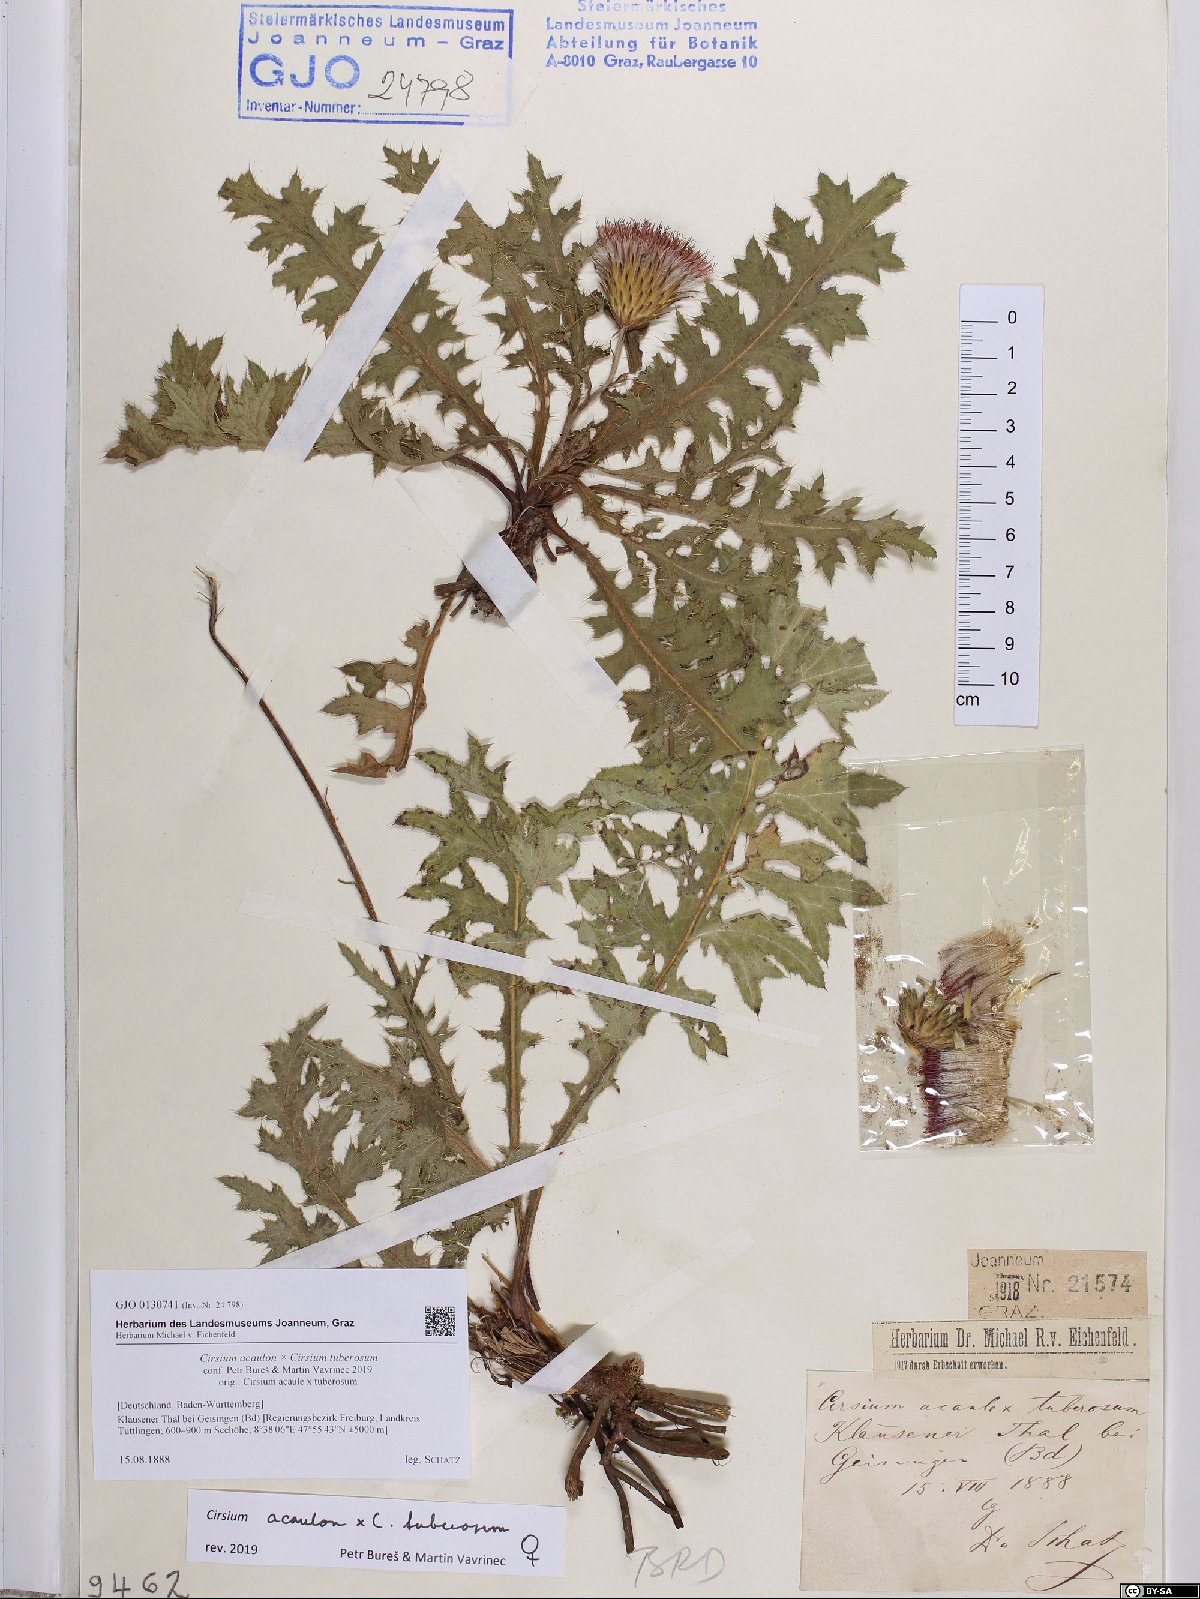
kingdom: Plantae
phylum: Tracheophyta
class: Magnoliopsida
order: Asterales
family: Asteraceae
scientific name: Asteraceae
